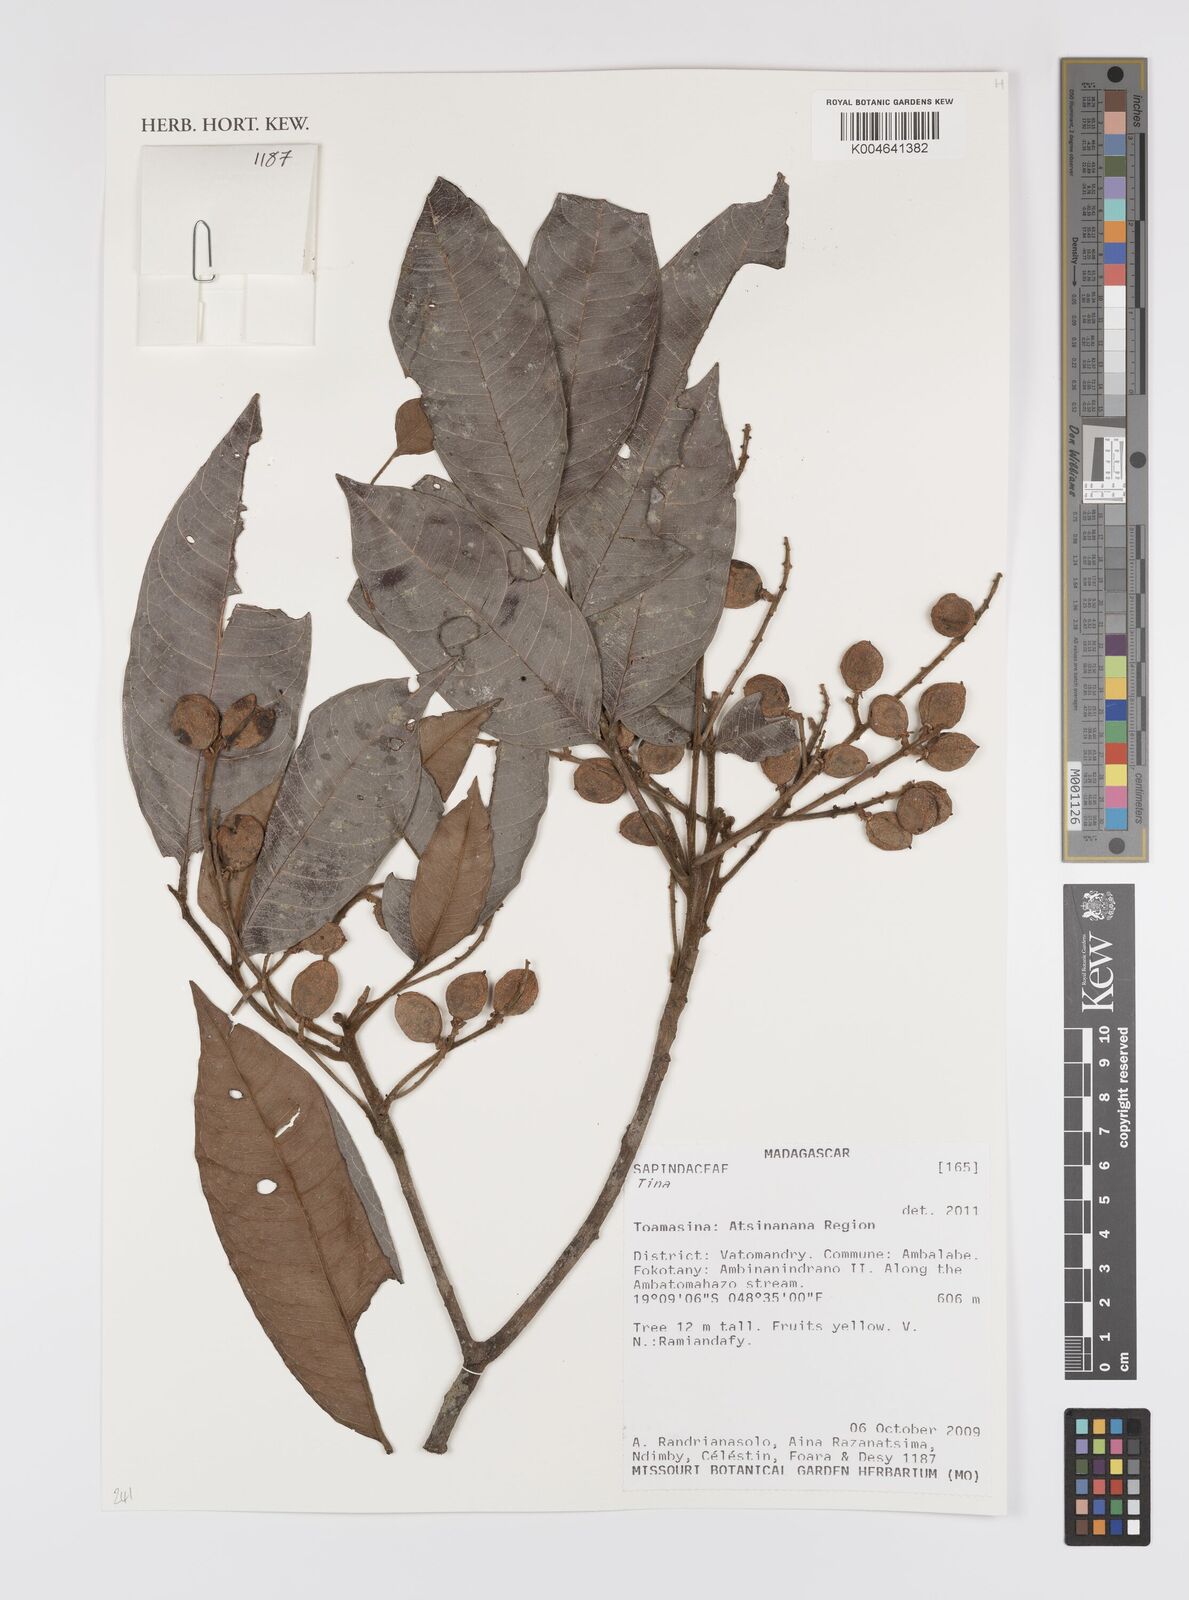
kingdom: Plantae
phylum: Tracheophyta
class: Magnoliopsida
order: Sapindales
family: Sapindaceae
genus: Tina
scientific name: Tina
